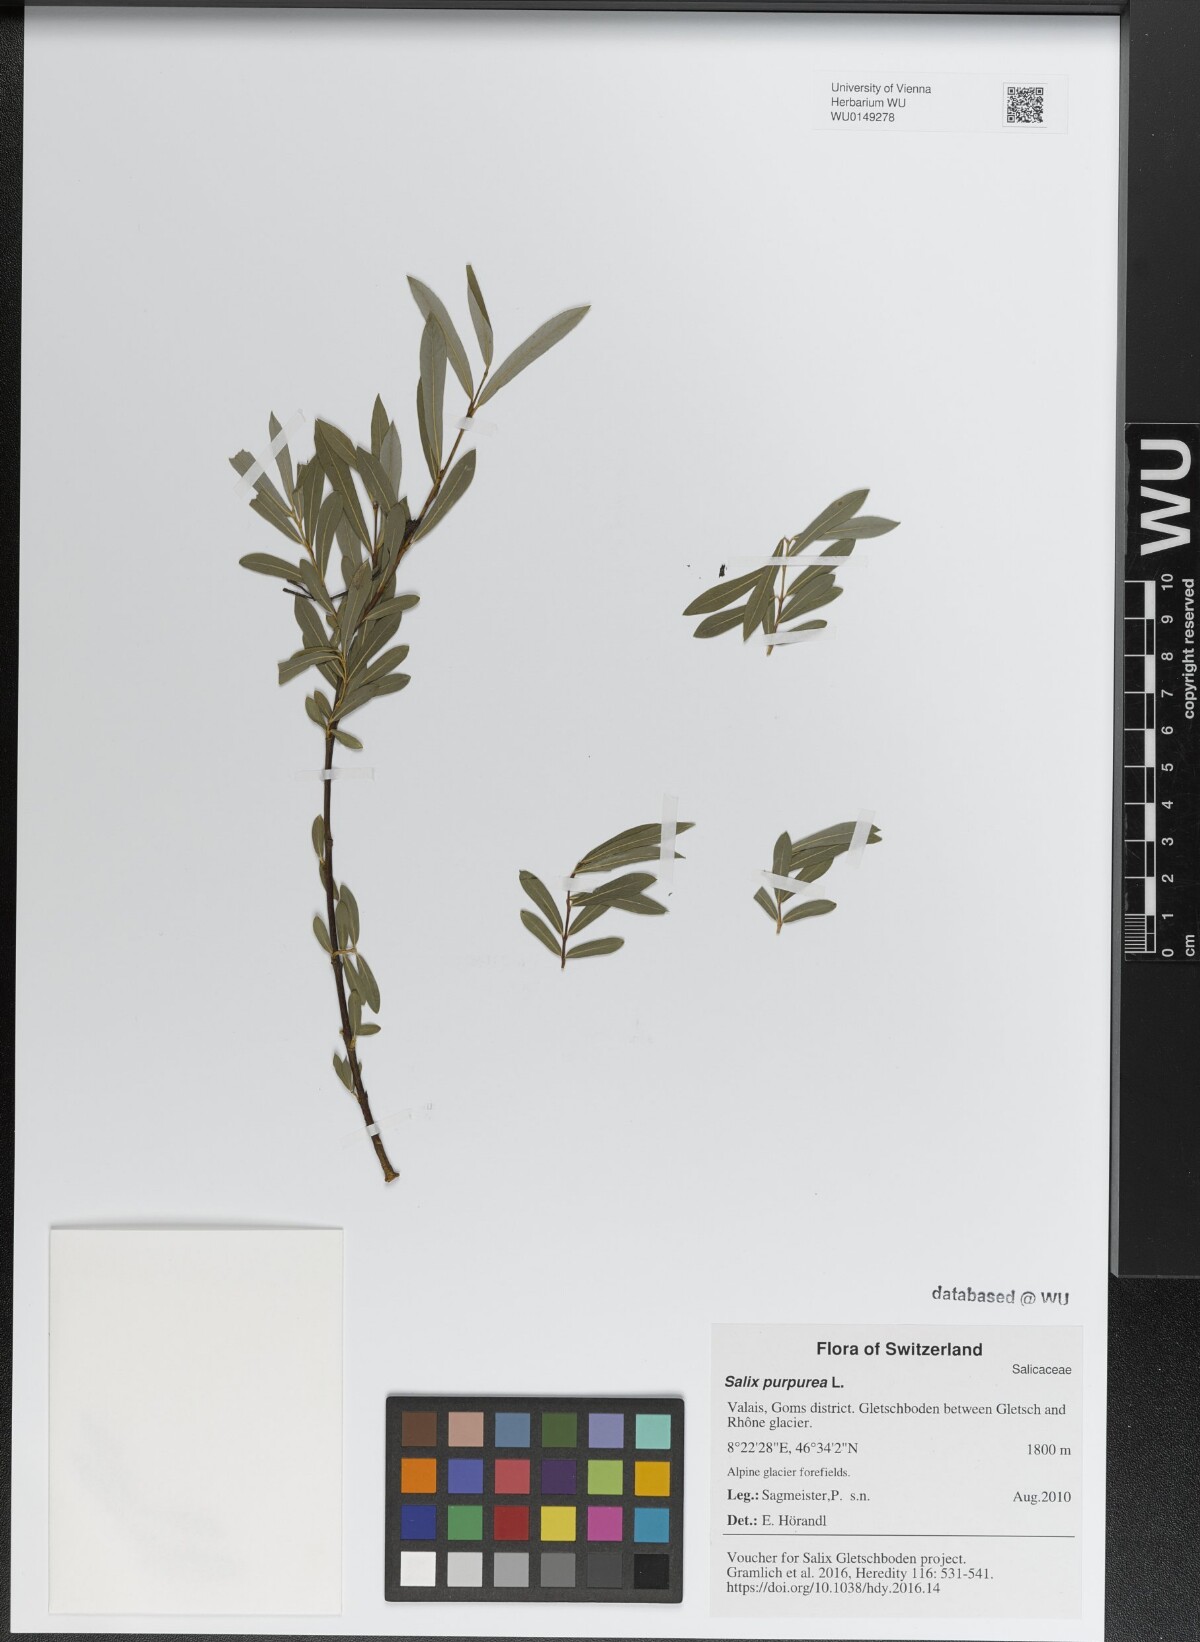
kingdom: Plantae
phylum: Tracheophyta
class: Magnoliopsida
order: Malpighiales
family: Salicaceae
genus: Salix
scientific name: Salix purpurea
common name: Purple willow
